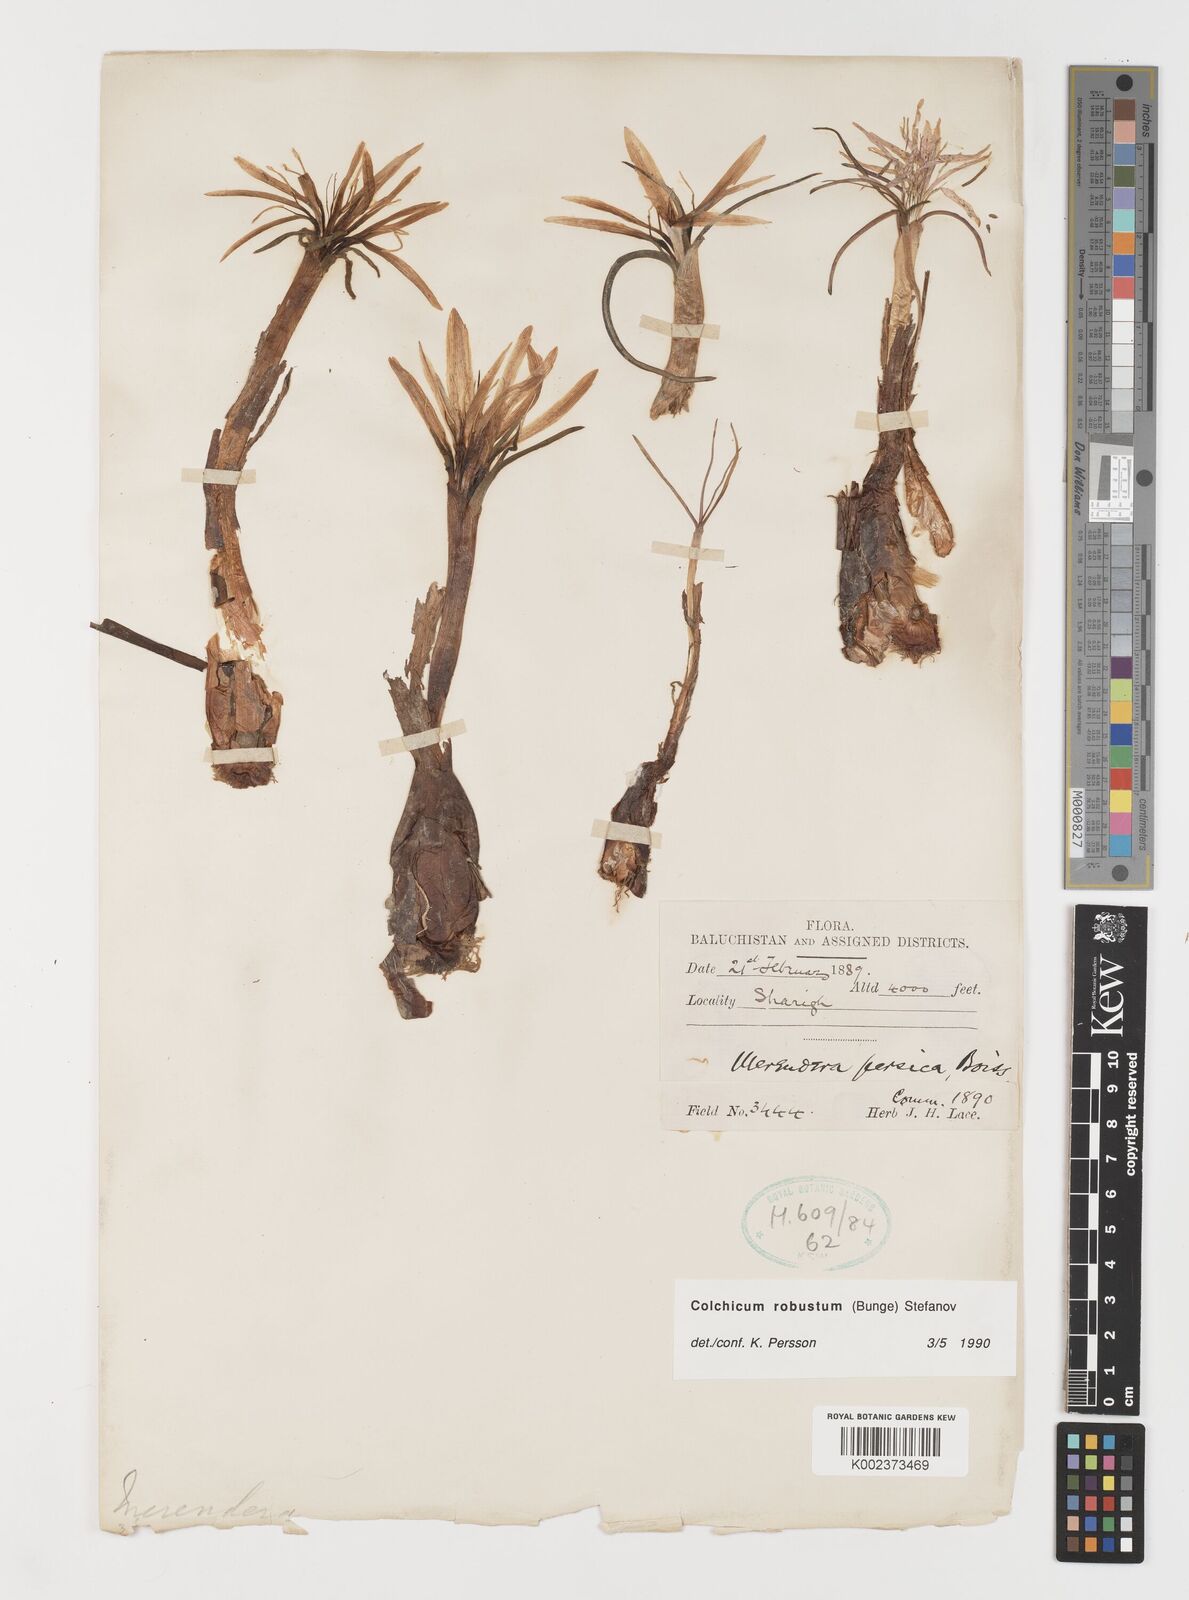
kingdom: Plantae
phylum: Tracheophyta
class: Liliopsida
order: Liliales
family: Colchicaceae
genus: Colchicum
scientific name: Colchicum robustum
